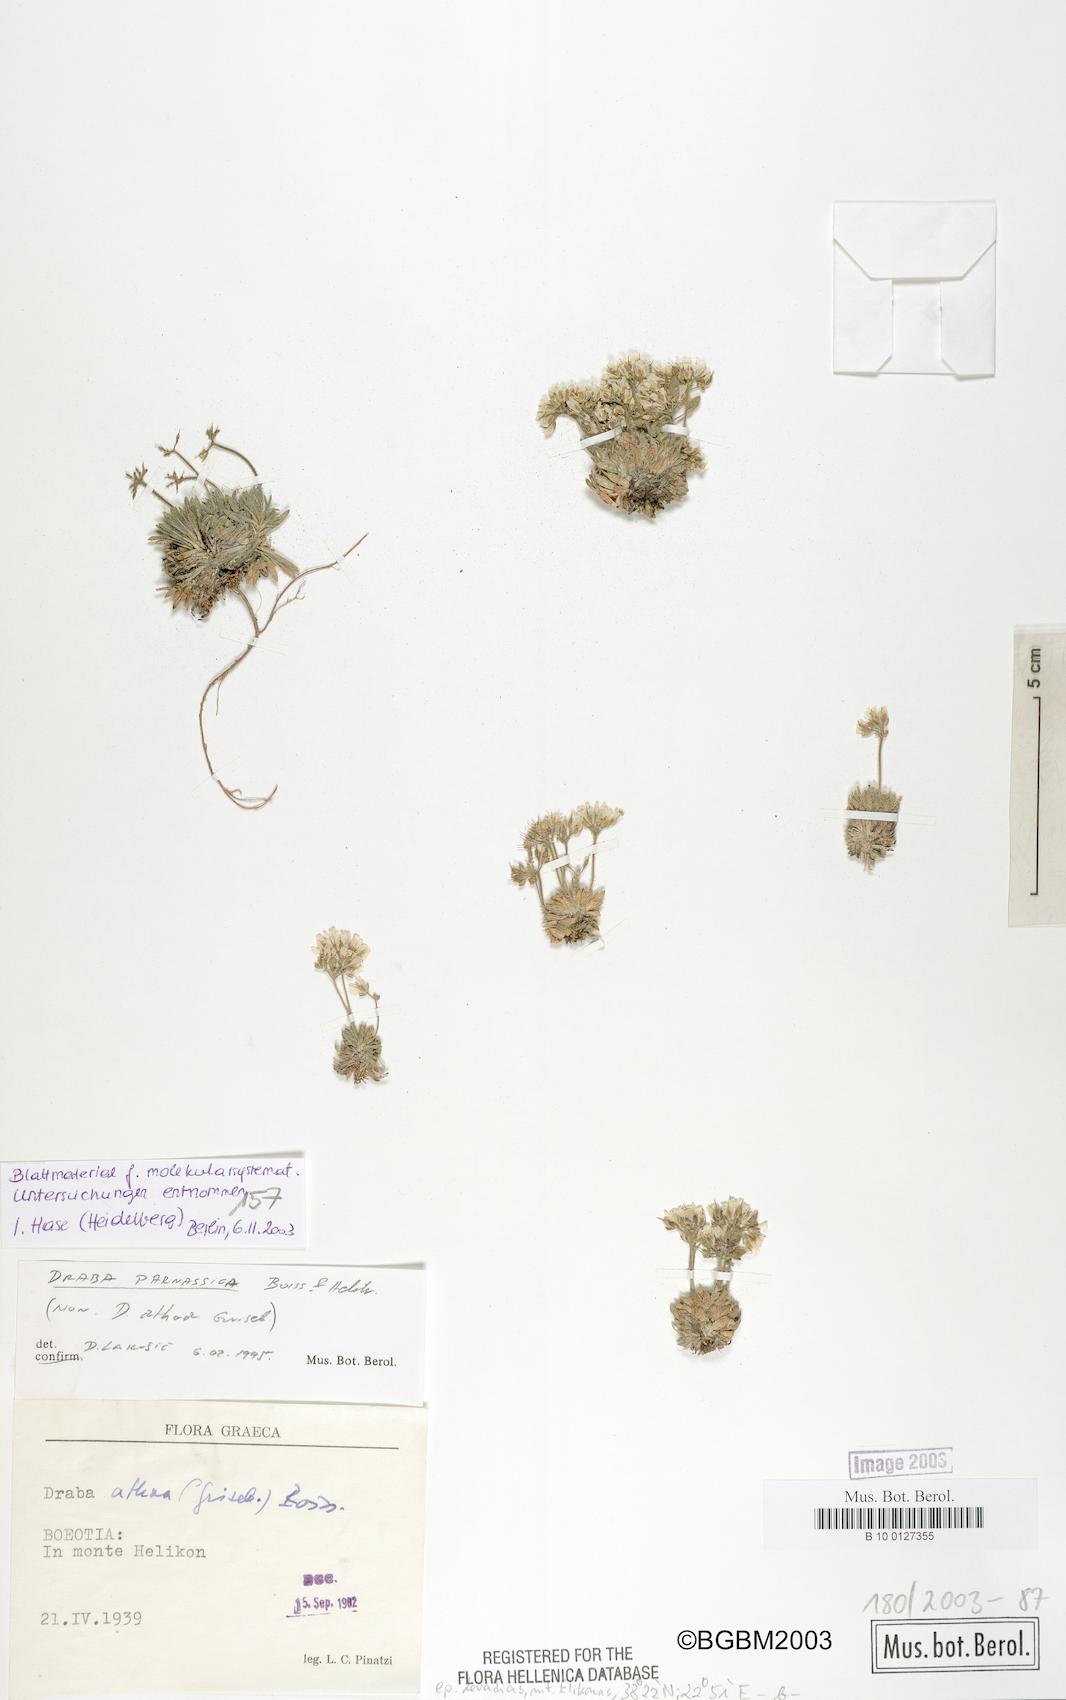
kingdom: Plantae
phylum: Tracheophyta
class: Magnoliopsida
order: Brassicales
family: Brassicaceae
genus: Draba
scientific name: Draba parnassica
